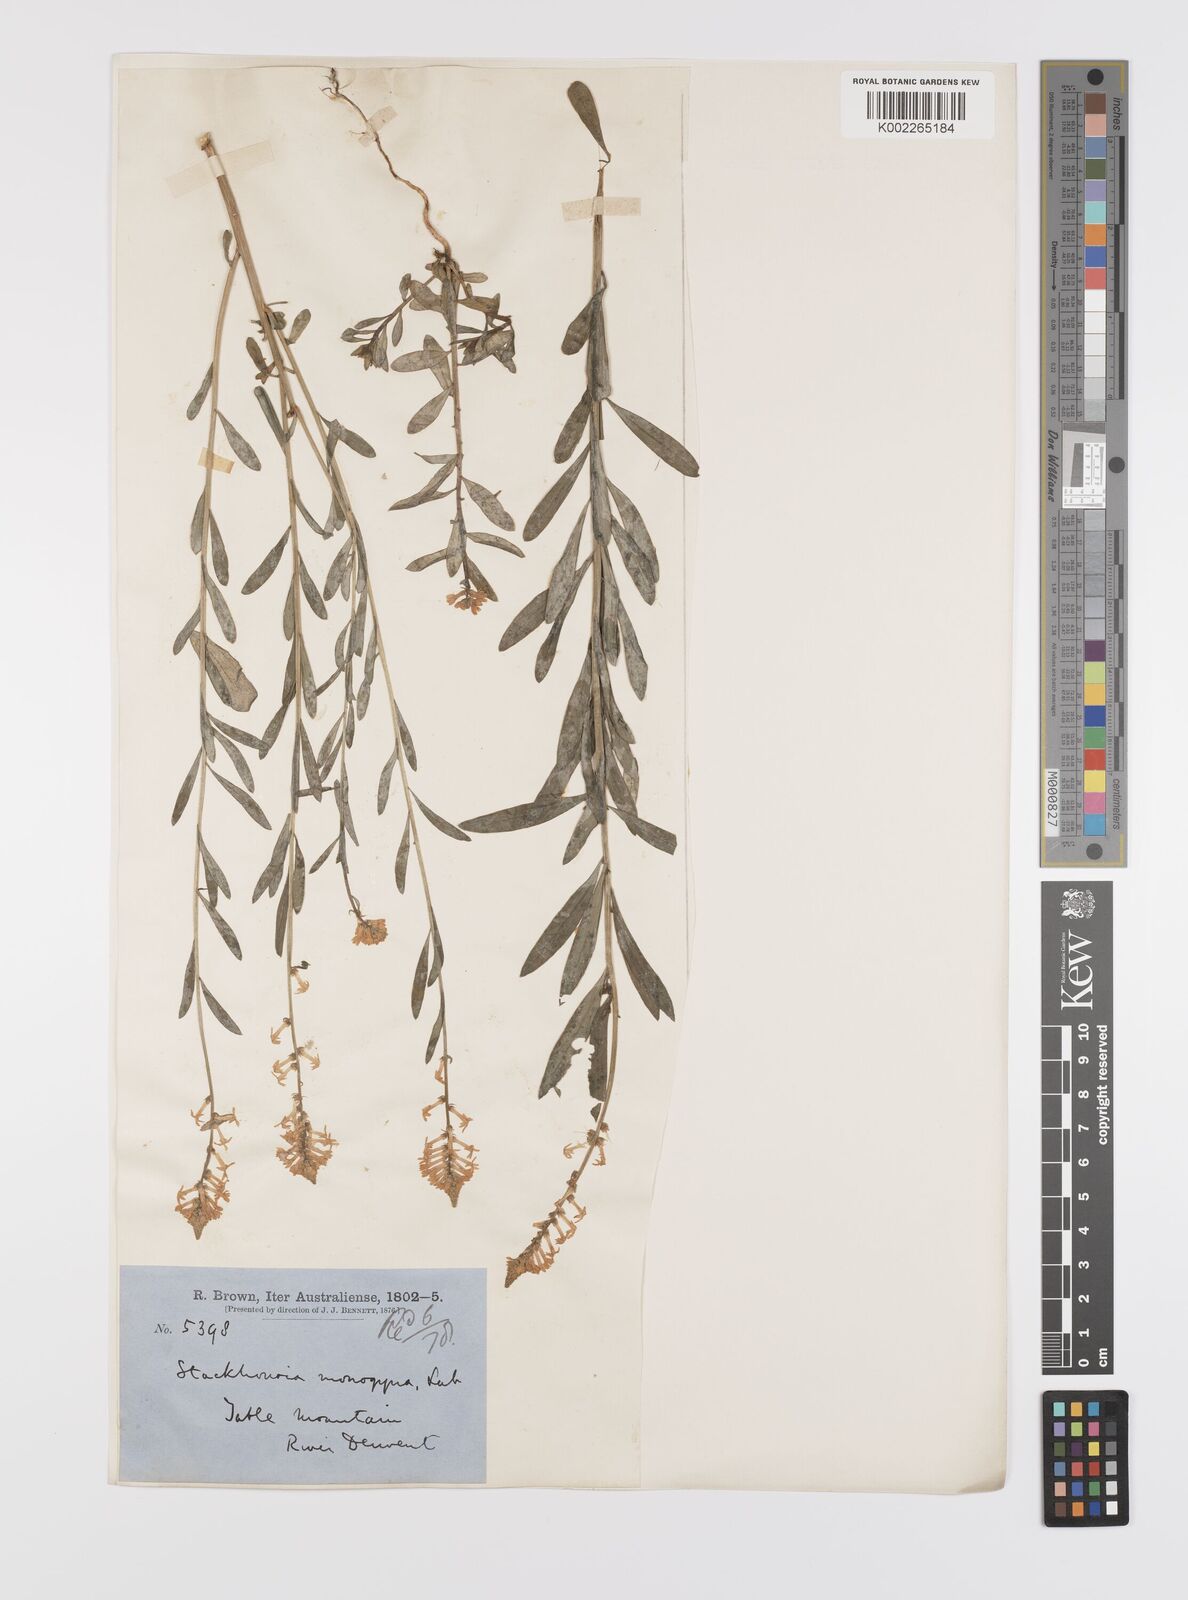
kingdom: Plantae
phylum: Tracheophyta
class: Magnoliopsida
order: Celastrales
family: Celastraceae
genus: Stackhousia
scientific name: Stackhousia monogyna
